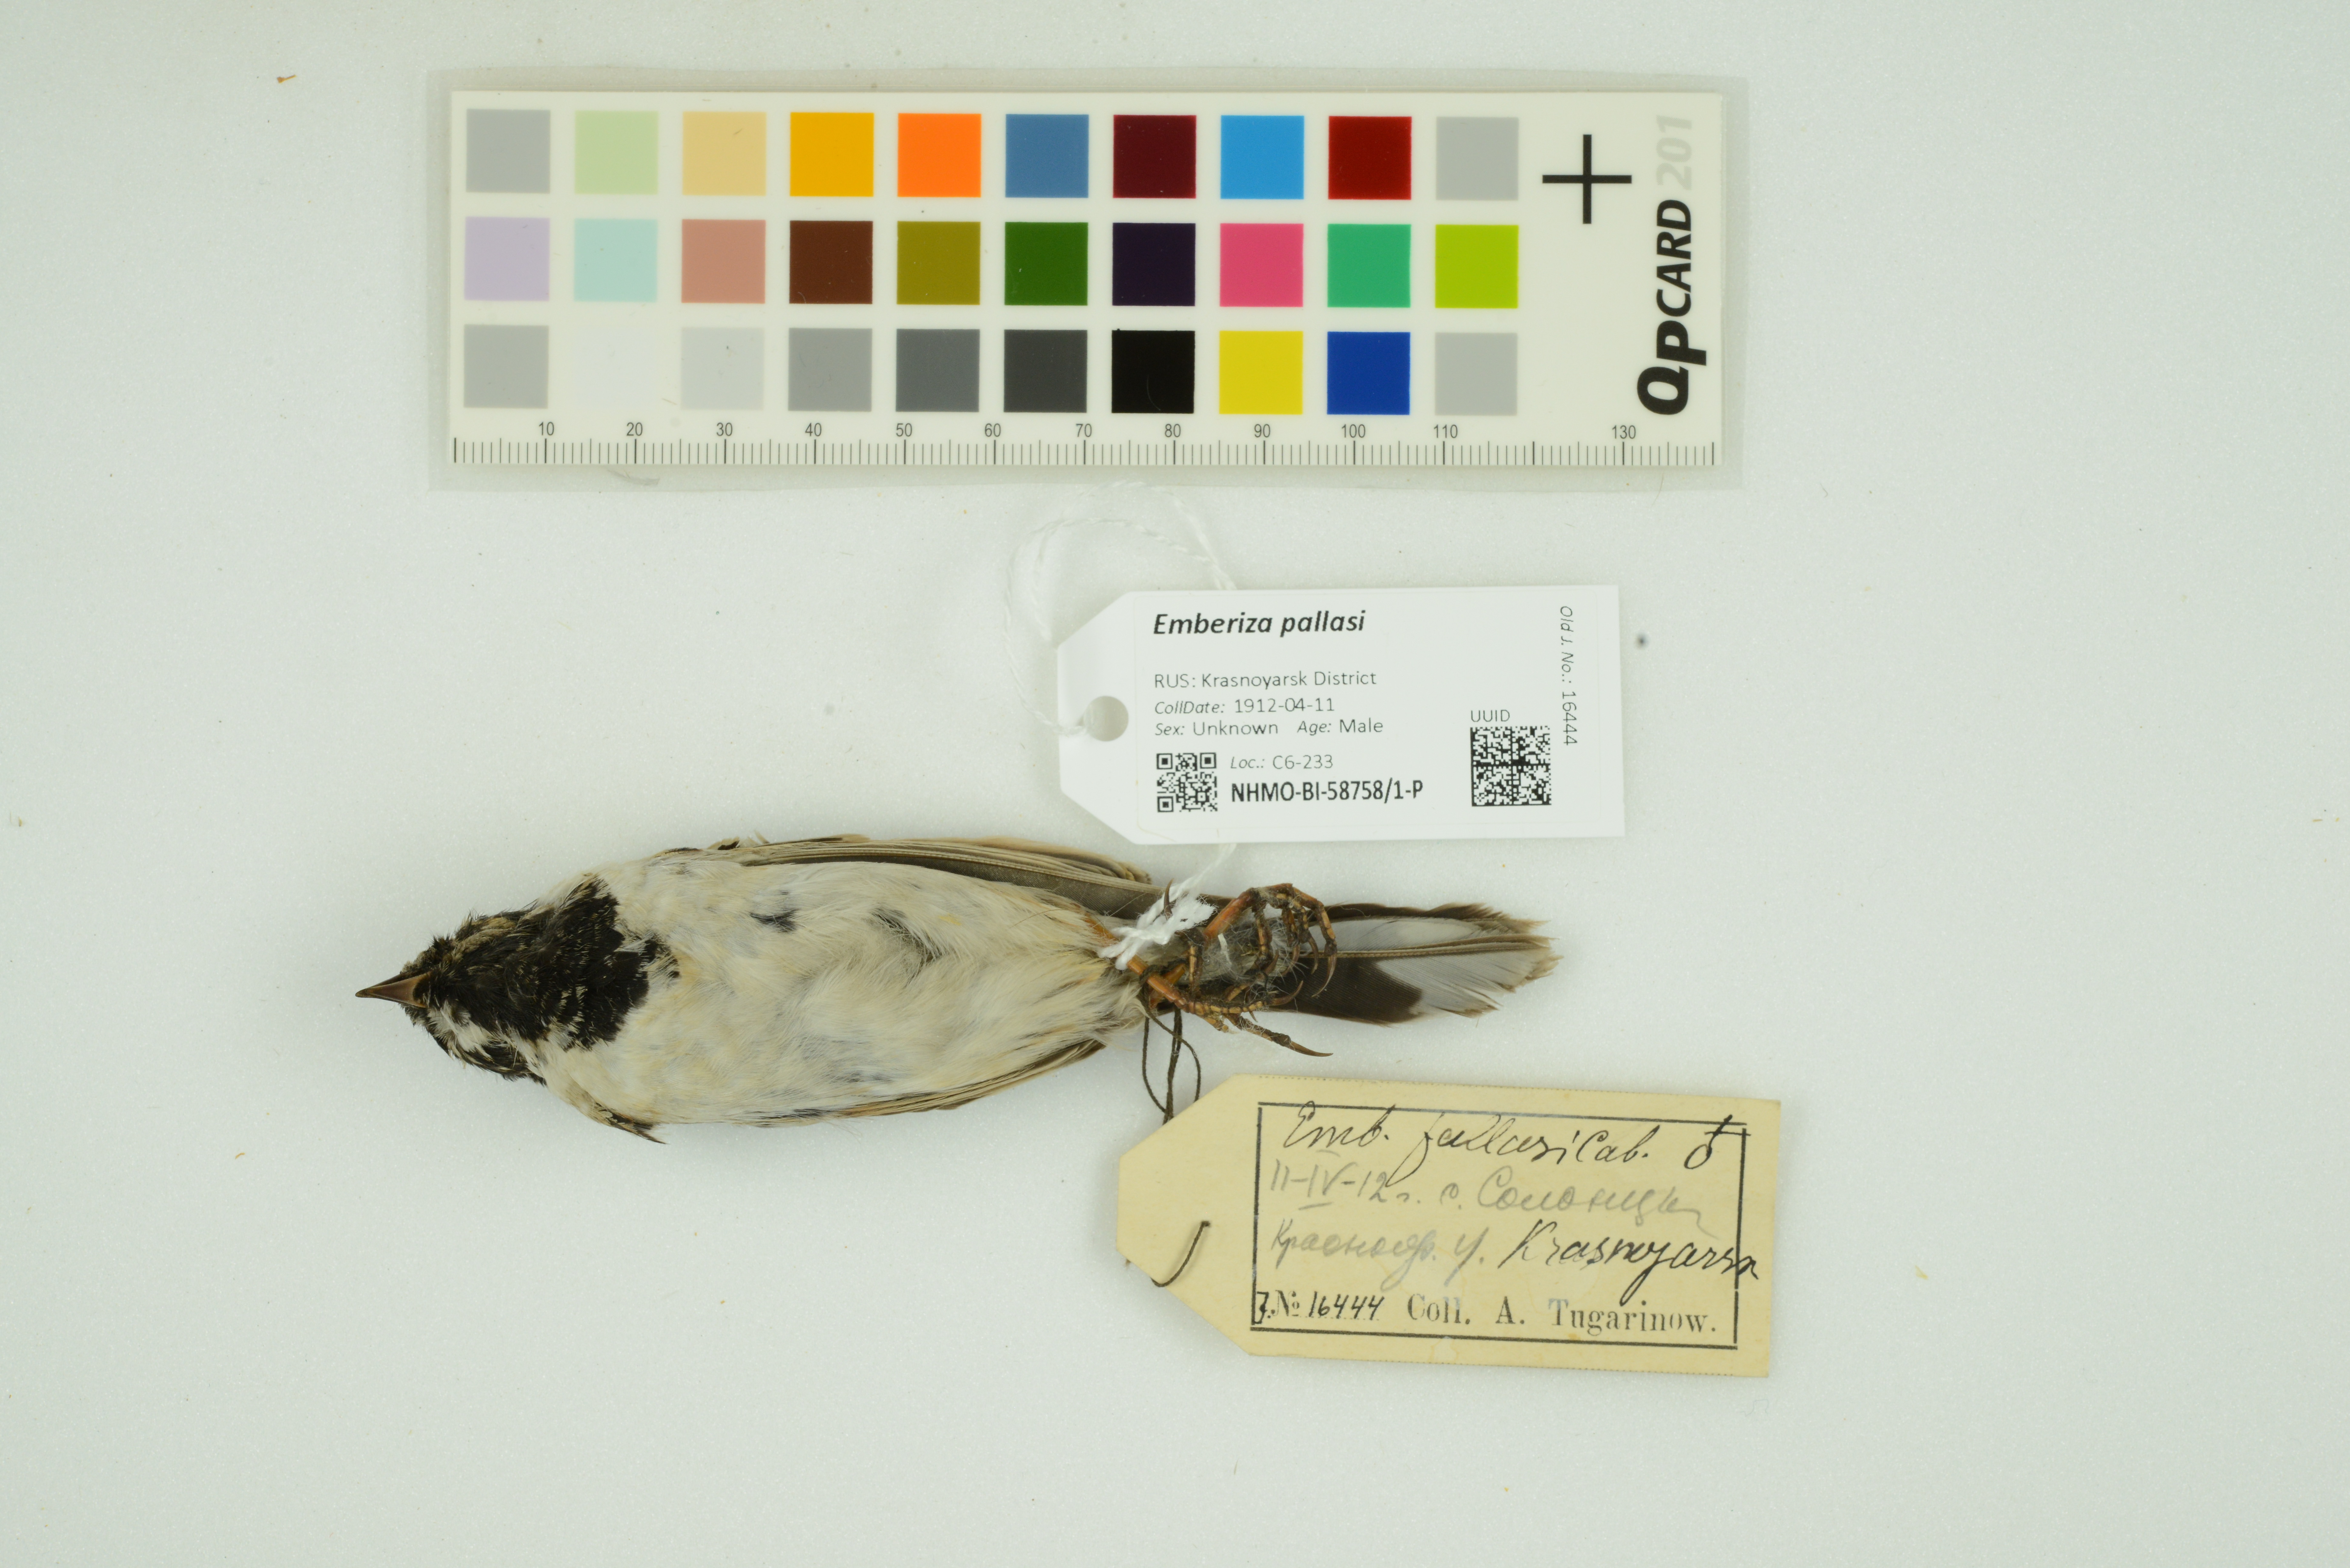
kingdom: Animalia
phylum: Chordata
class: Aves
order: Passeriformes
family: Emberizidae
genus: Emberiza
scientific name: Emberiza pallasi
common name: Pallas's reed bunting
